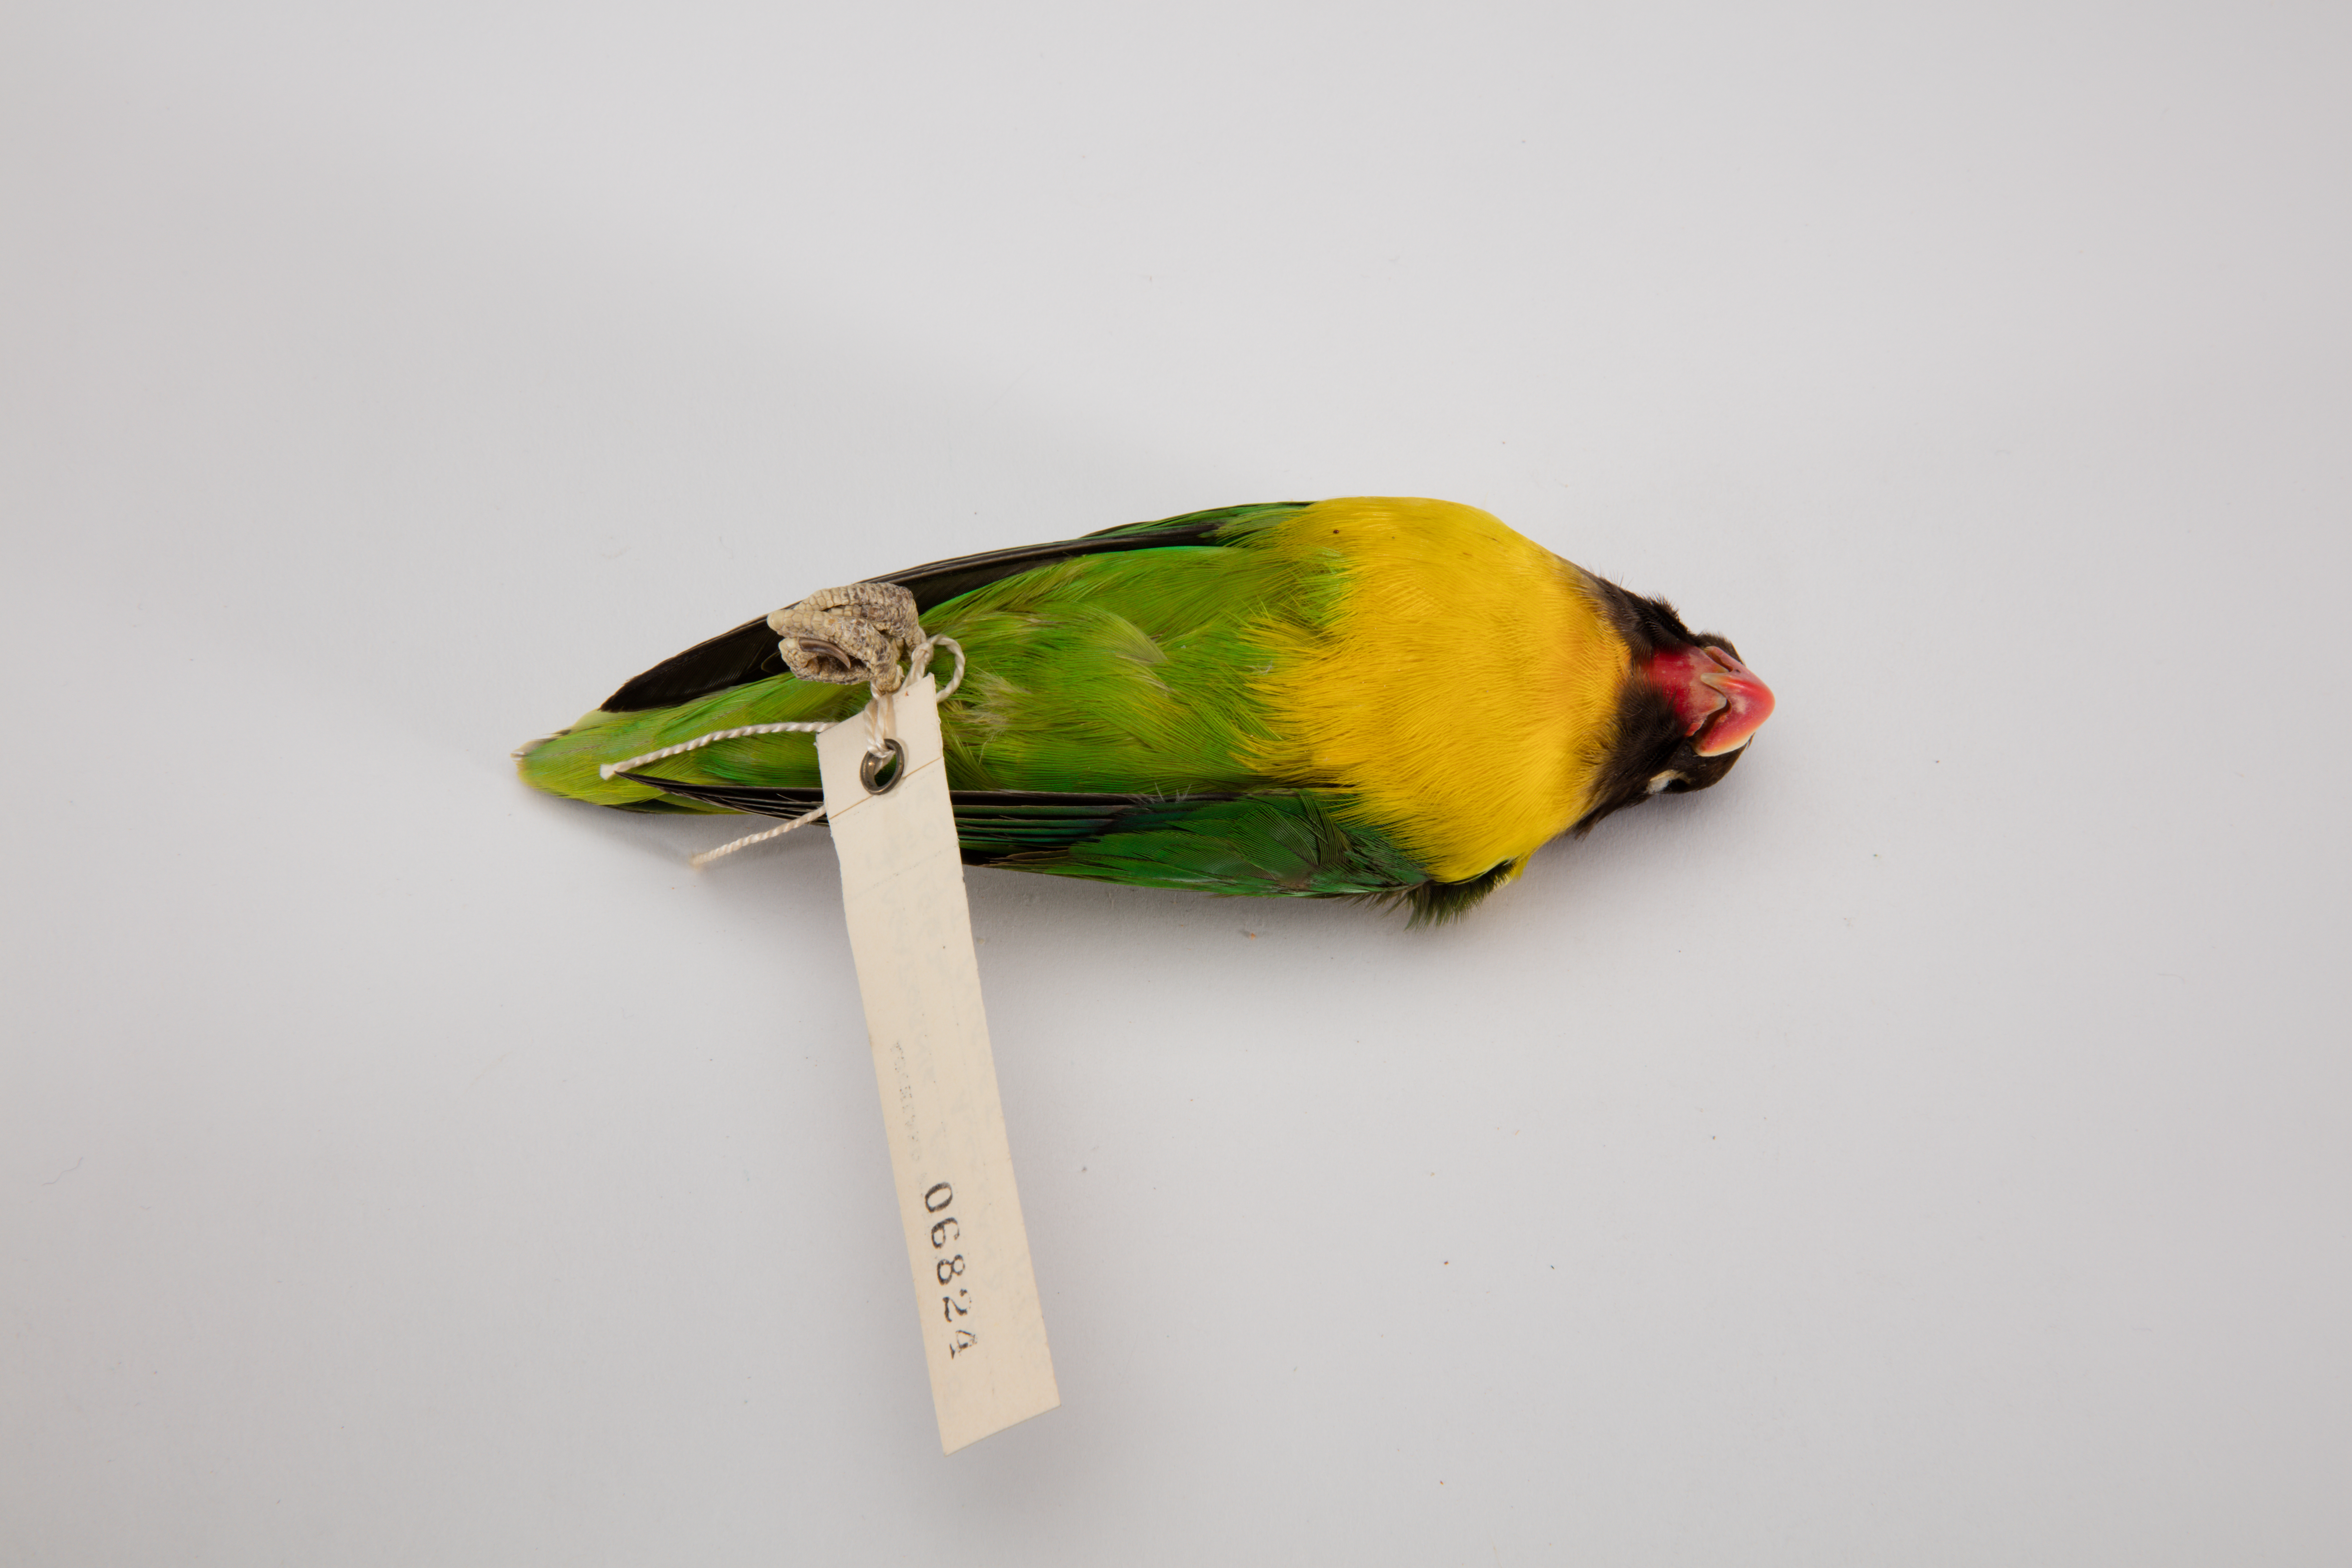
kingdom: Animalia
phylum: Chordata
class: Aves
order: Psittaciformes
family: Psittacidae
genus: Agapornis
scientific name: Agapornis personatus
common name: Yellow-collared lovebird
